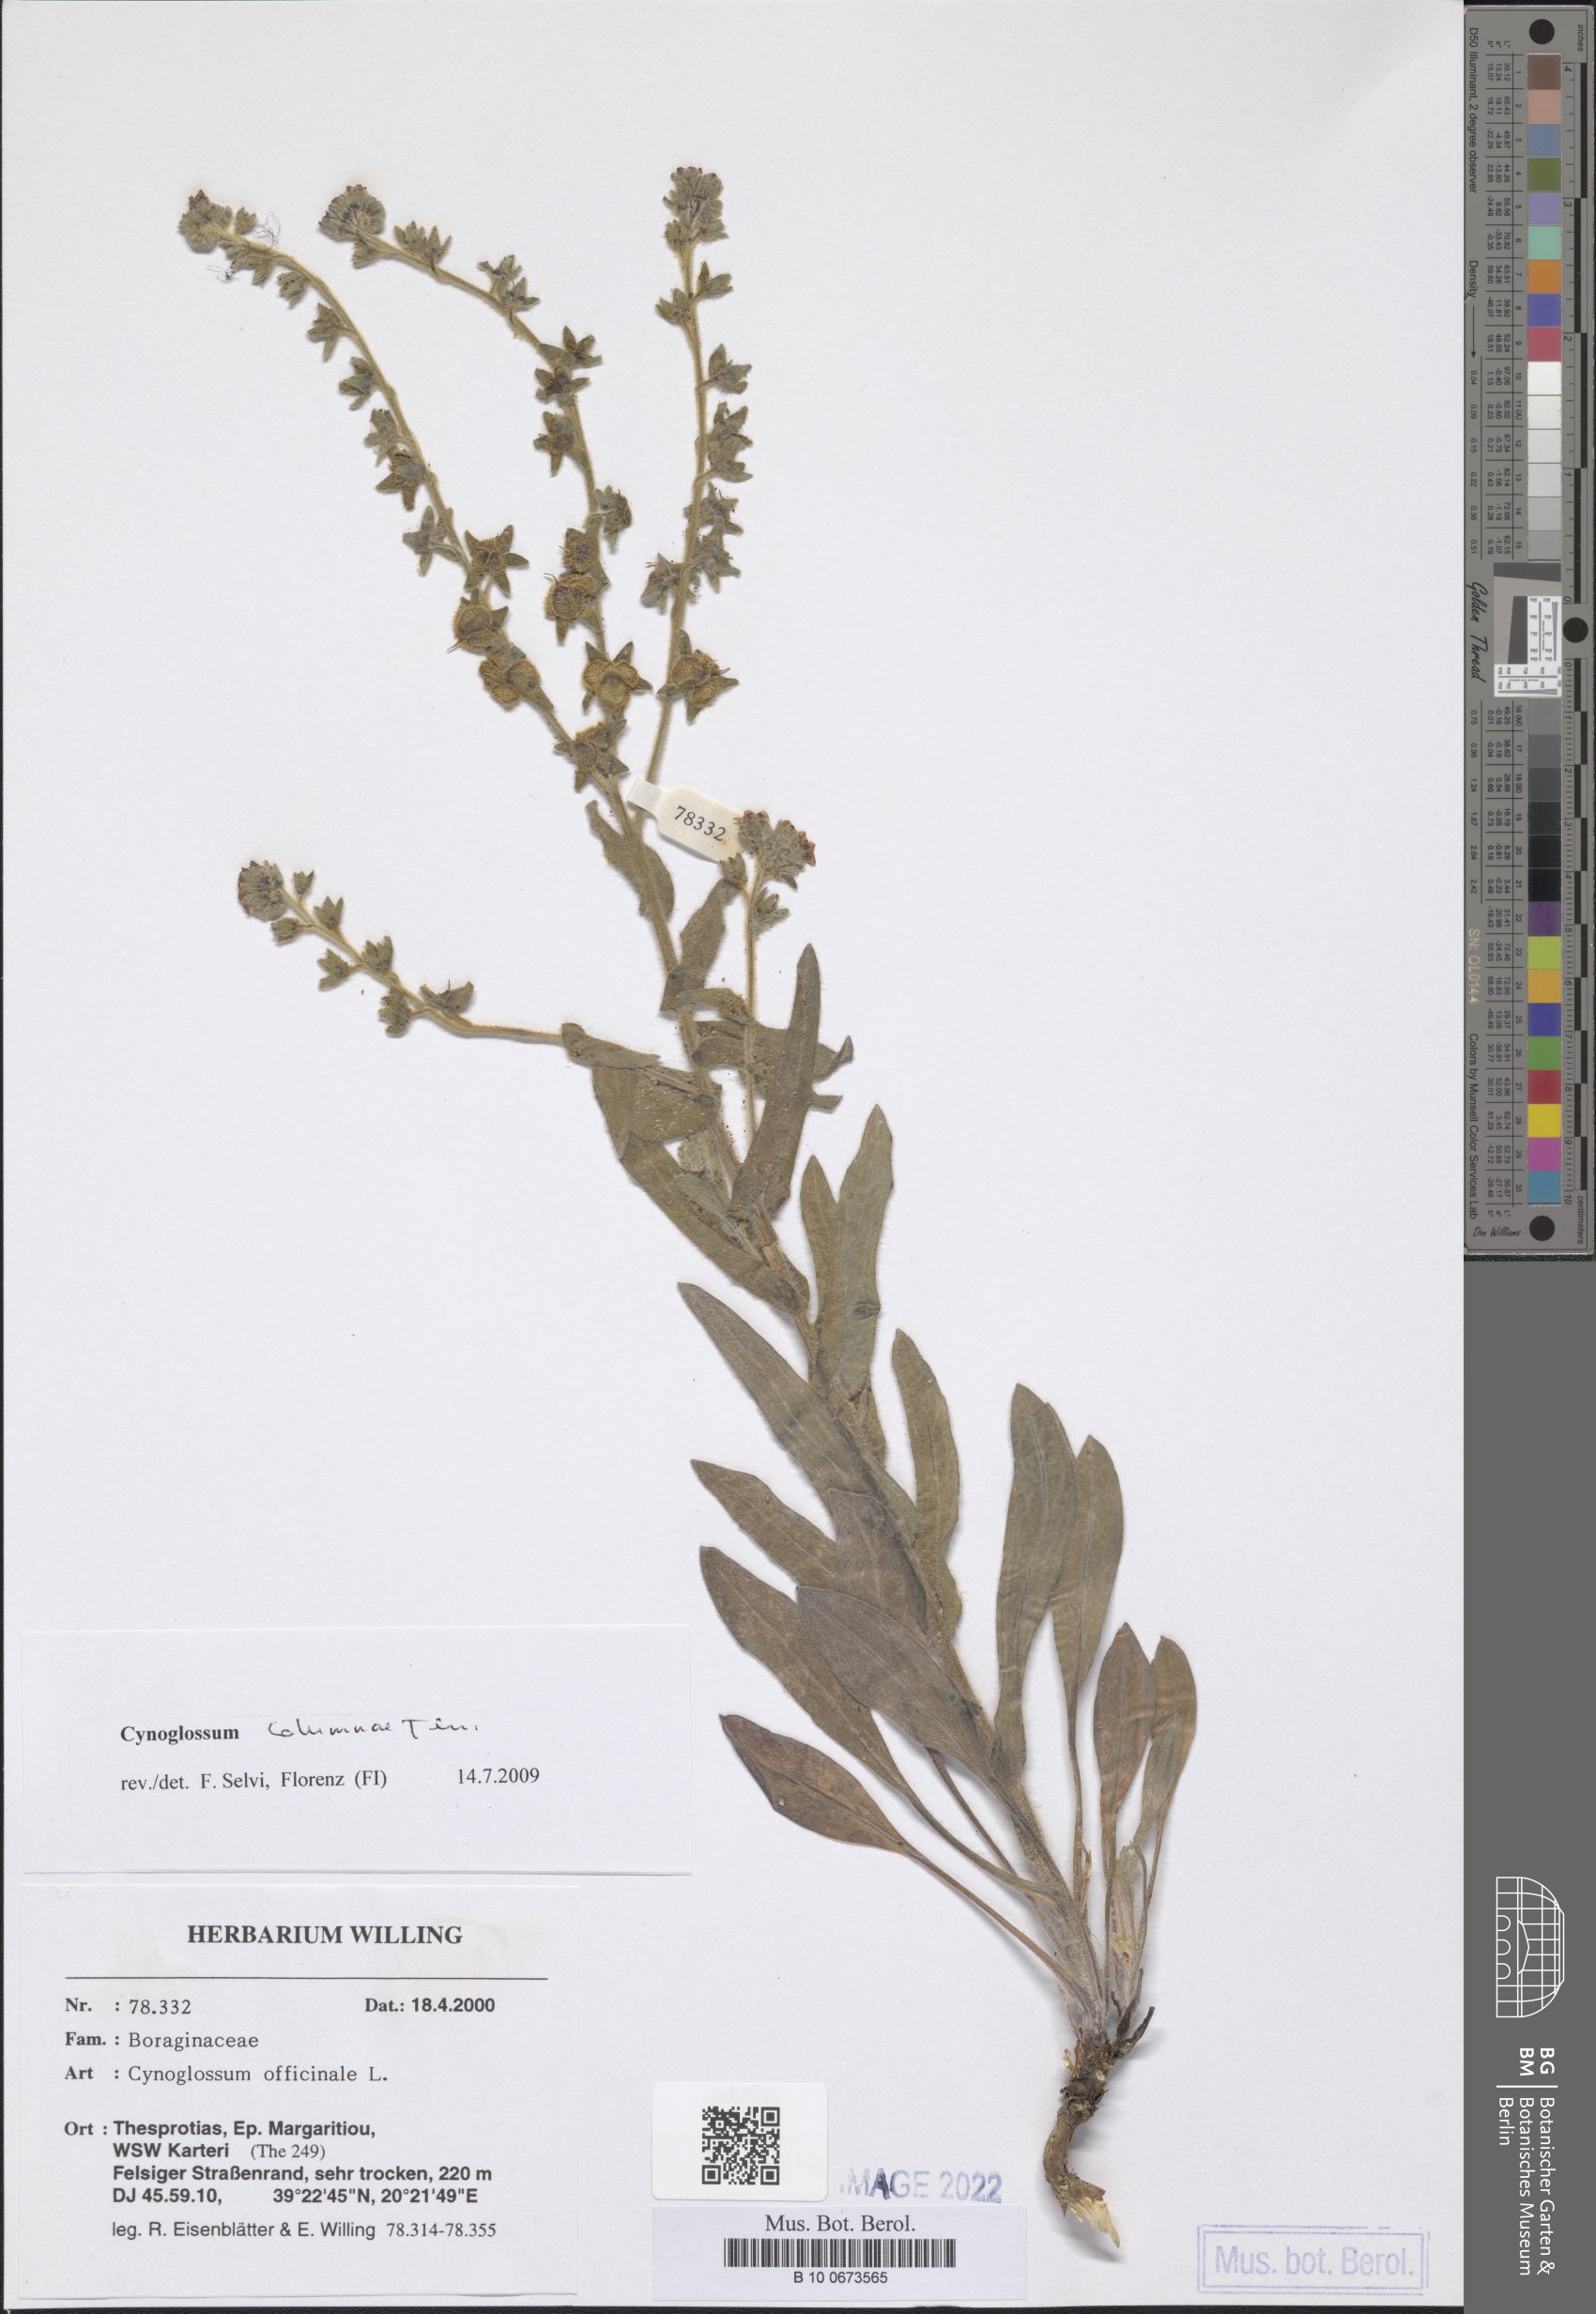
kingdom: Plantae
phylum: Tracheophyta
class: Magnoliopsida
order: Boraginales
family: Boraginaceae
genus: Rindera
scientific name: Rindera columnae
